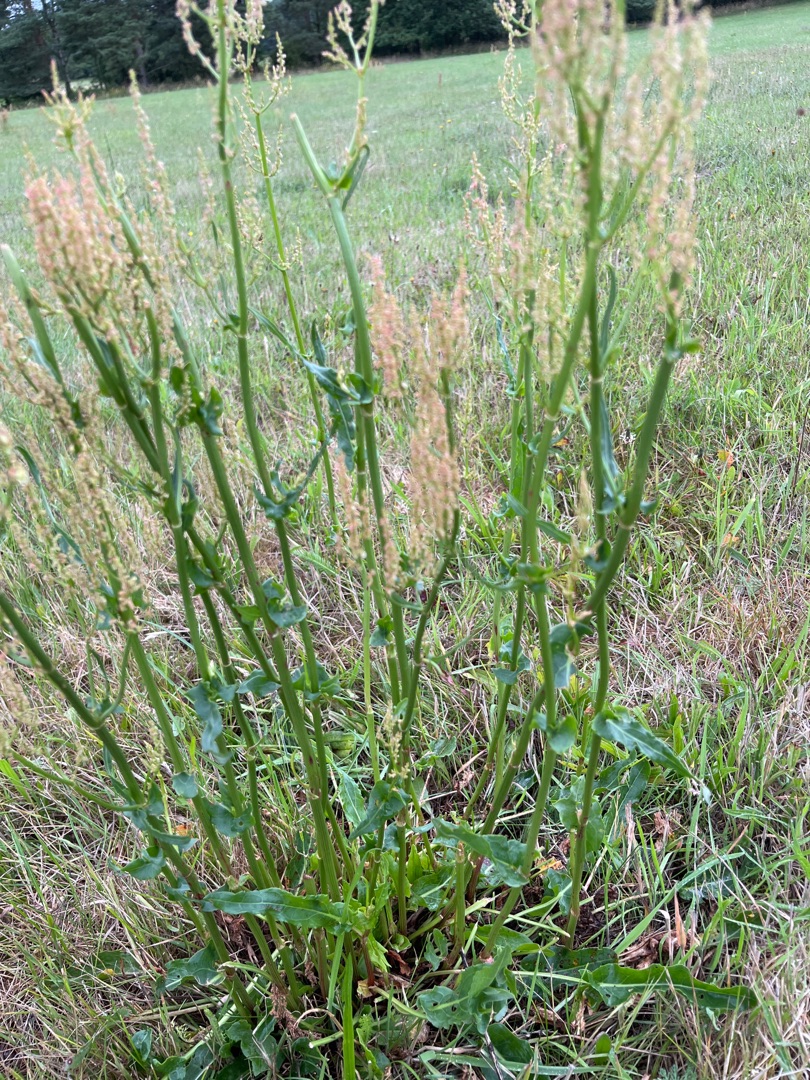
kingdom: Plantae
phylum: Tracheophyta
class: Magnoliopsida
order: Caryophyllales
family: Polygonaceae
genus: Rumex
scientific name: Rumex thyrsiflorus
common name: Dusk-syre
